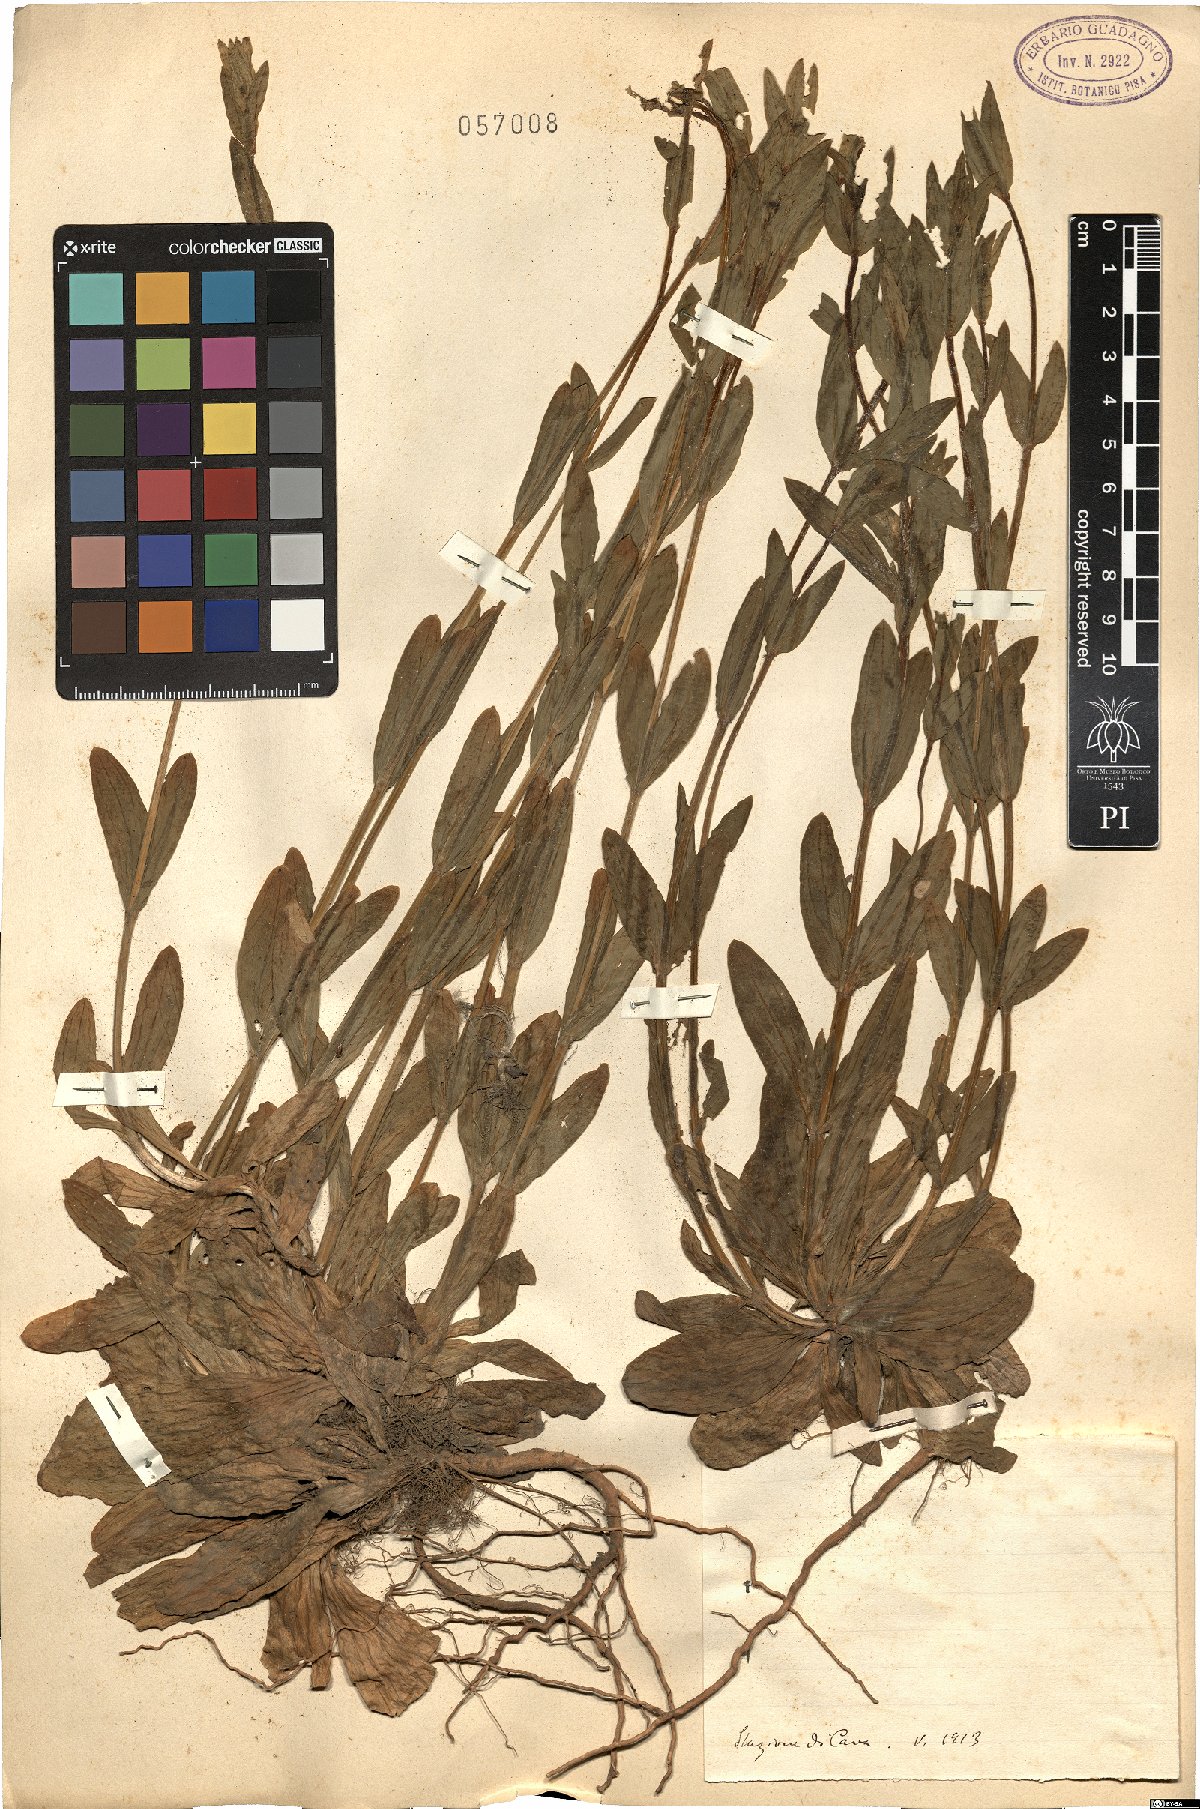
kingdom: Plantae
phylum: Tracheophyta
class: Magnoliopsida
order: Gentianales
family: Gentianaceae
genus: Erythraea
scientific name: Erythraea
